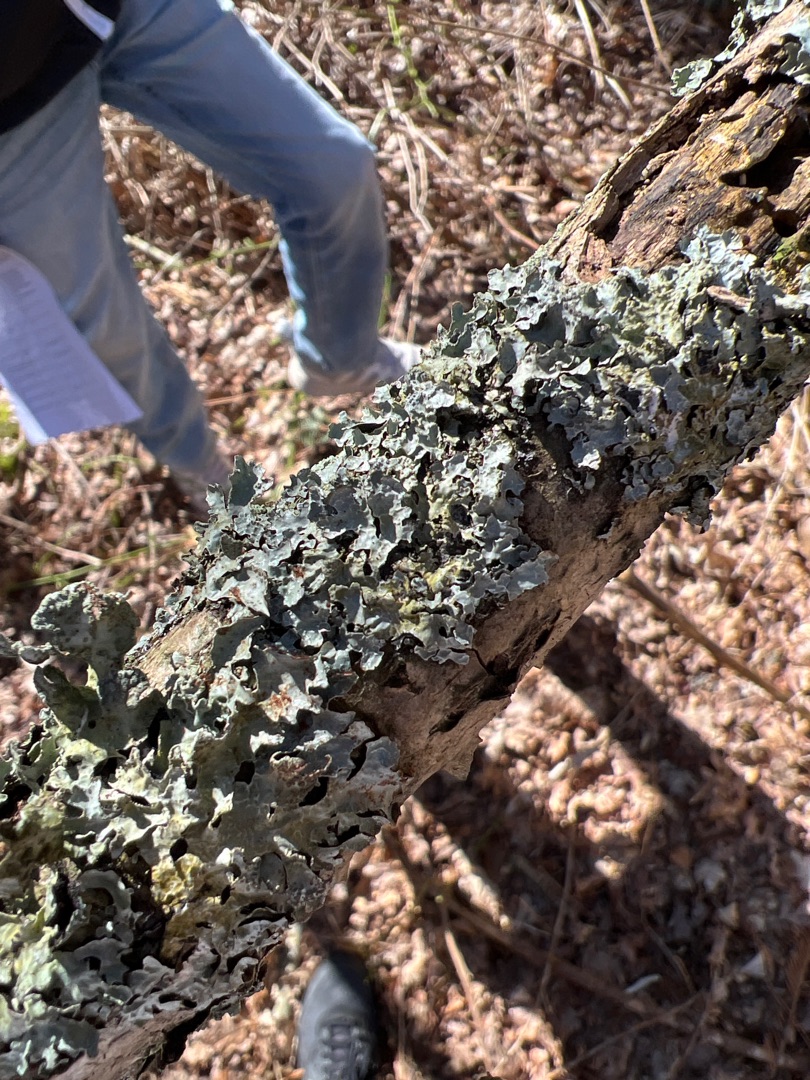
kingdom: Fungi
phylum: Ascomycota
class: Lecanoromycetes
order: Lecanorales
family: Parmeliaceae
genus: Parmelia
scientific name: Parmelia sulcata
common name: Rynket skållav
